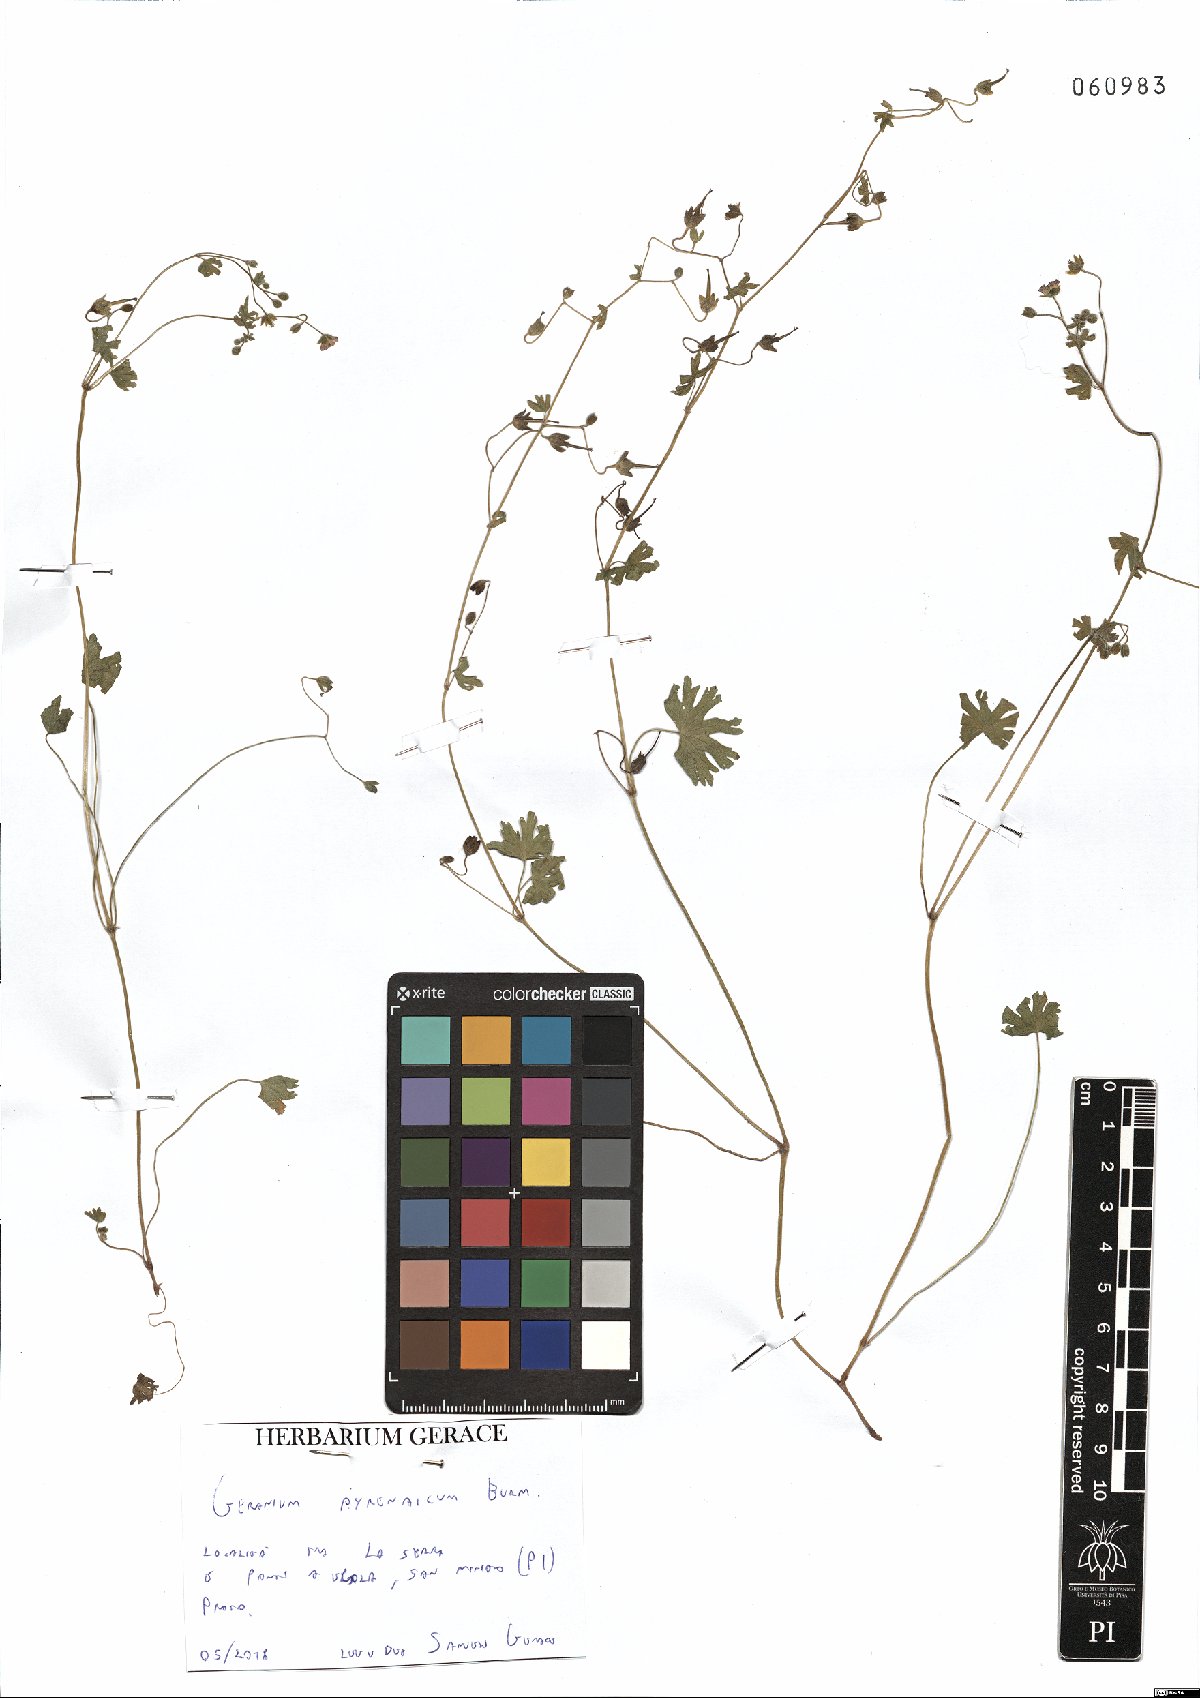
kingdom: Plantae
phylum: Tracheophyta
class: Magnoliopsida
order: Geraniales
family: Geraniaceae
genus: Geranium
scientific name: Geranium pyrenaicum
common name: Hedgerow crane's-bill
